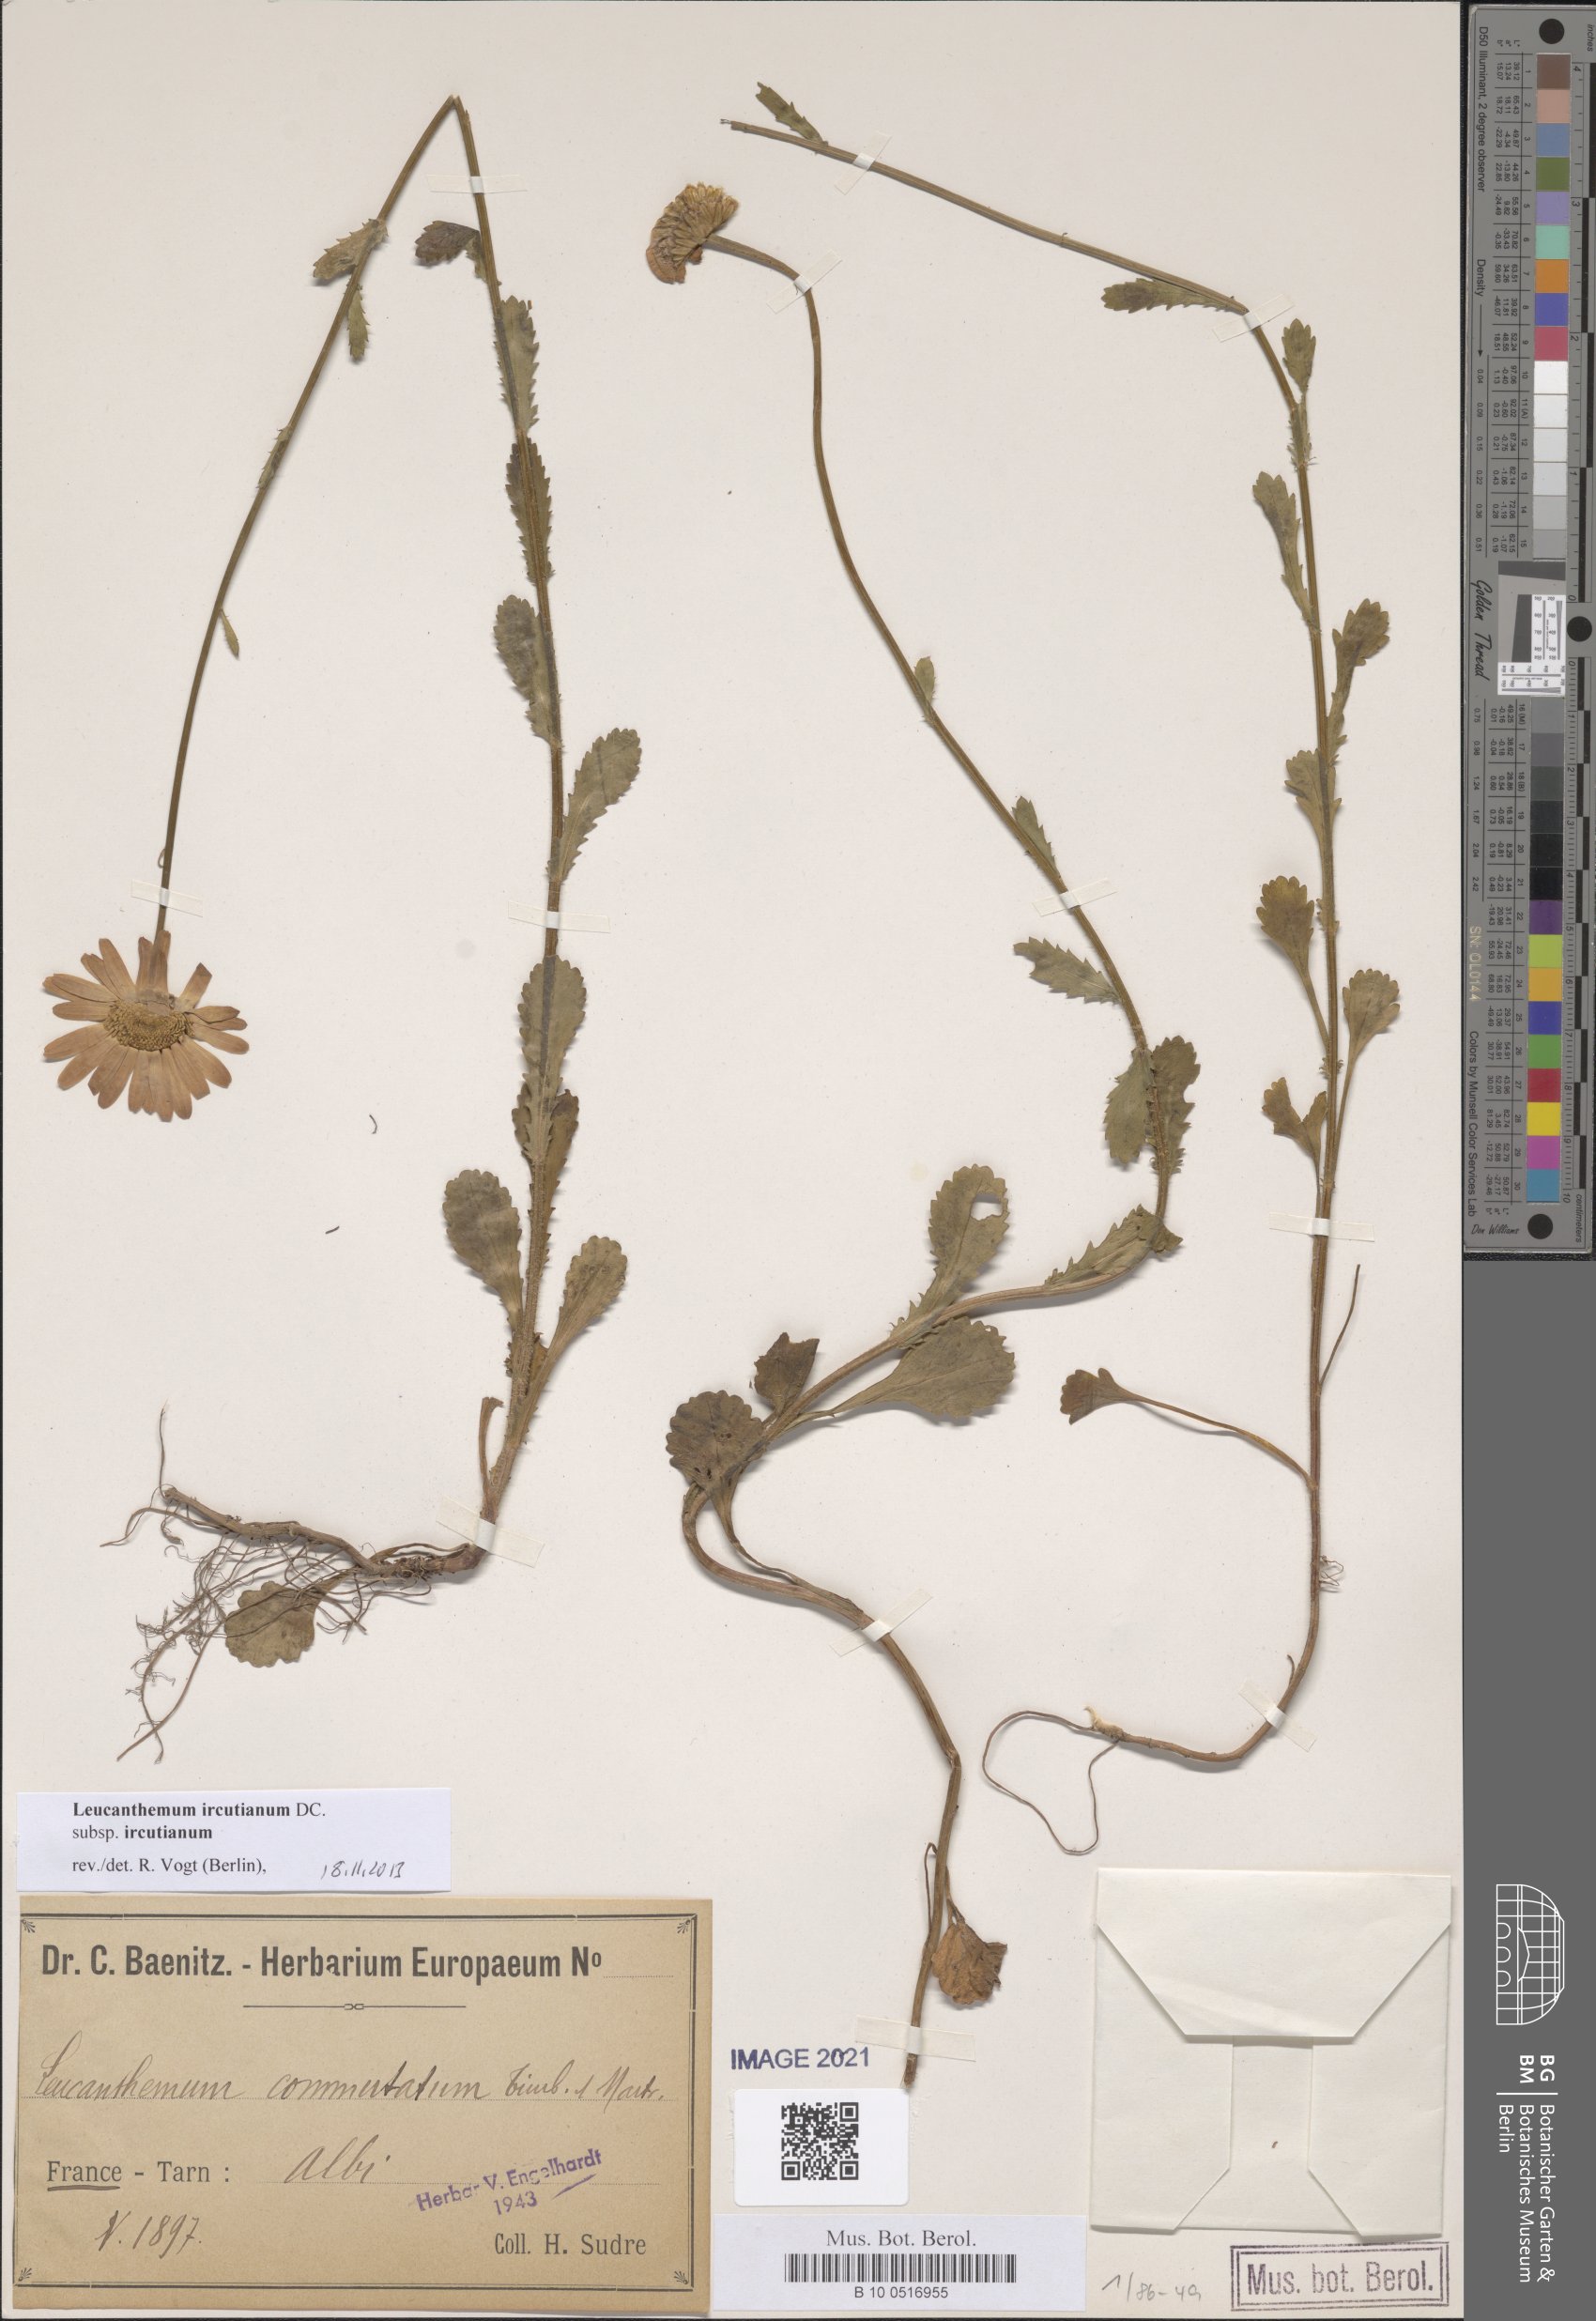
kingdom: Plantae
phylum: Tracheophyta
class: Magnoliopsida
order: Asterales
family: Asteraceae
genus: Leucanthemum
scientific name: Leucanthemum ircutianum
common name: Daisy
